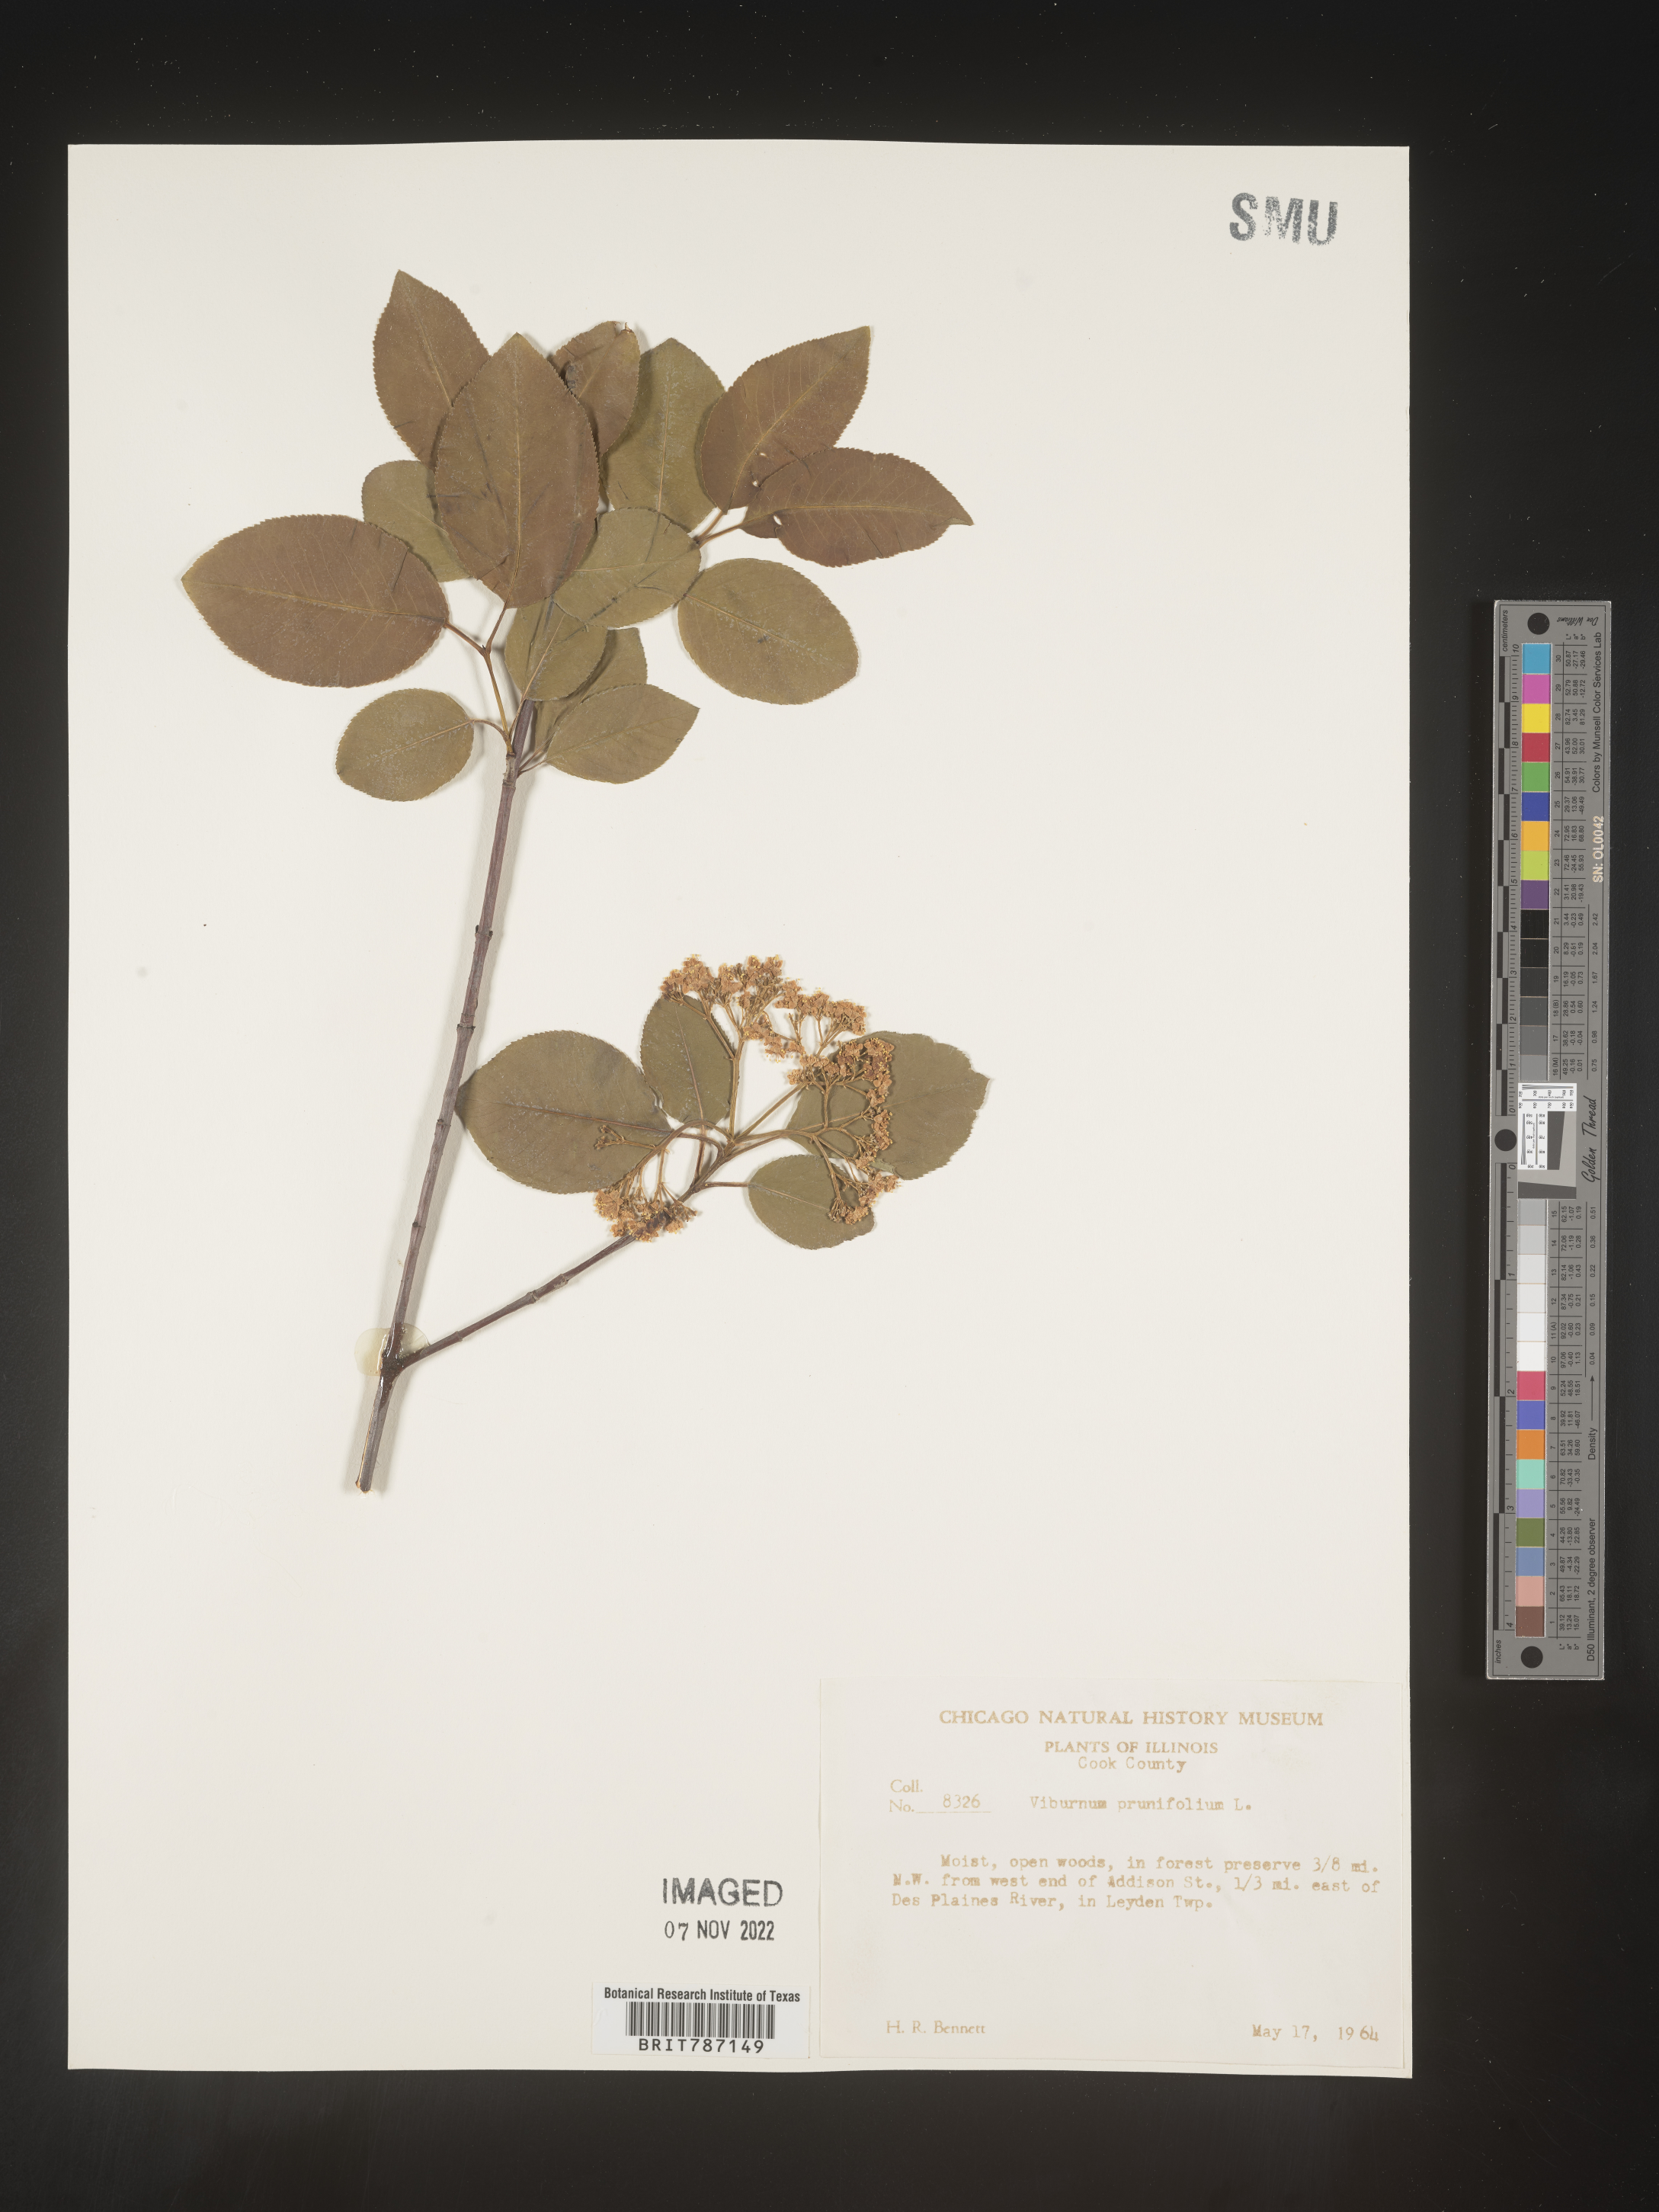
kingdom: Plantae
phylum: Tracheophyta
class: Magnoliopsida
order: Dipsacales
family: Viburnaceae
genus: Viburnum
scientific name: Viburnum prunifolium
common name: Black haw
